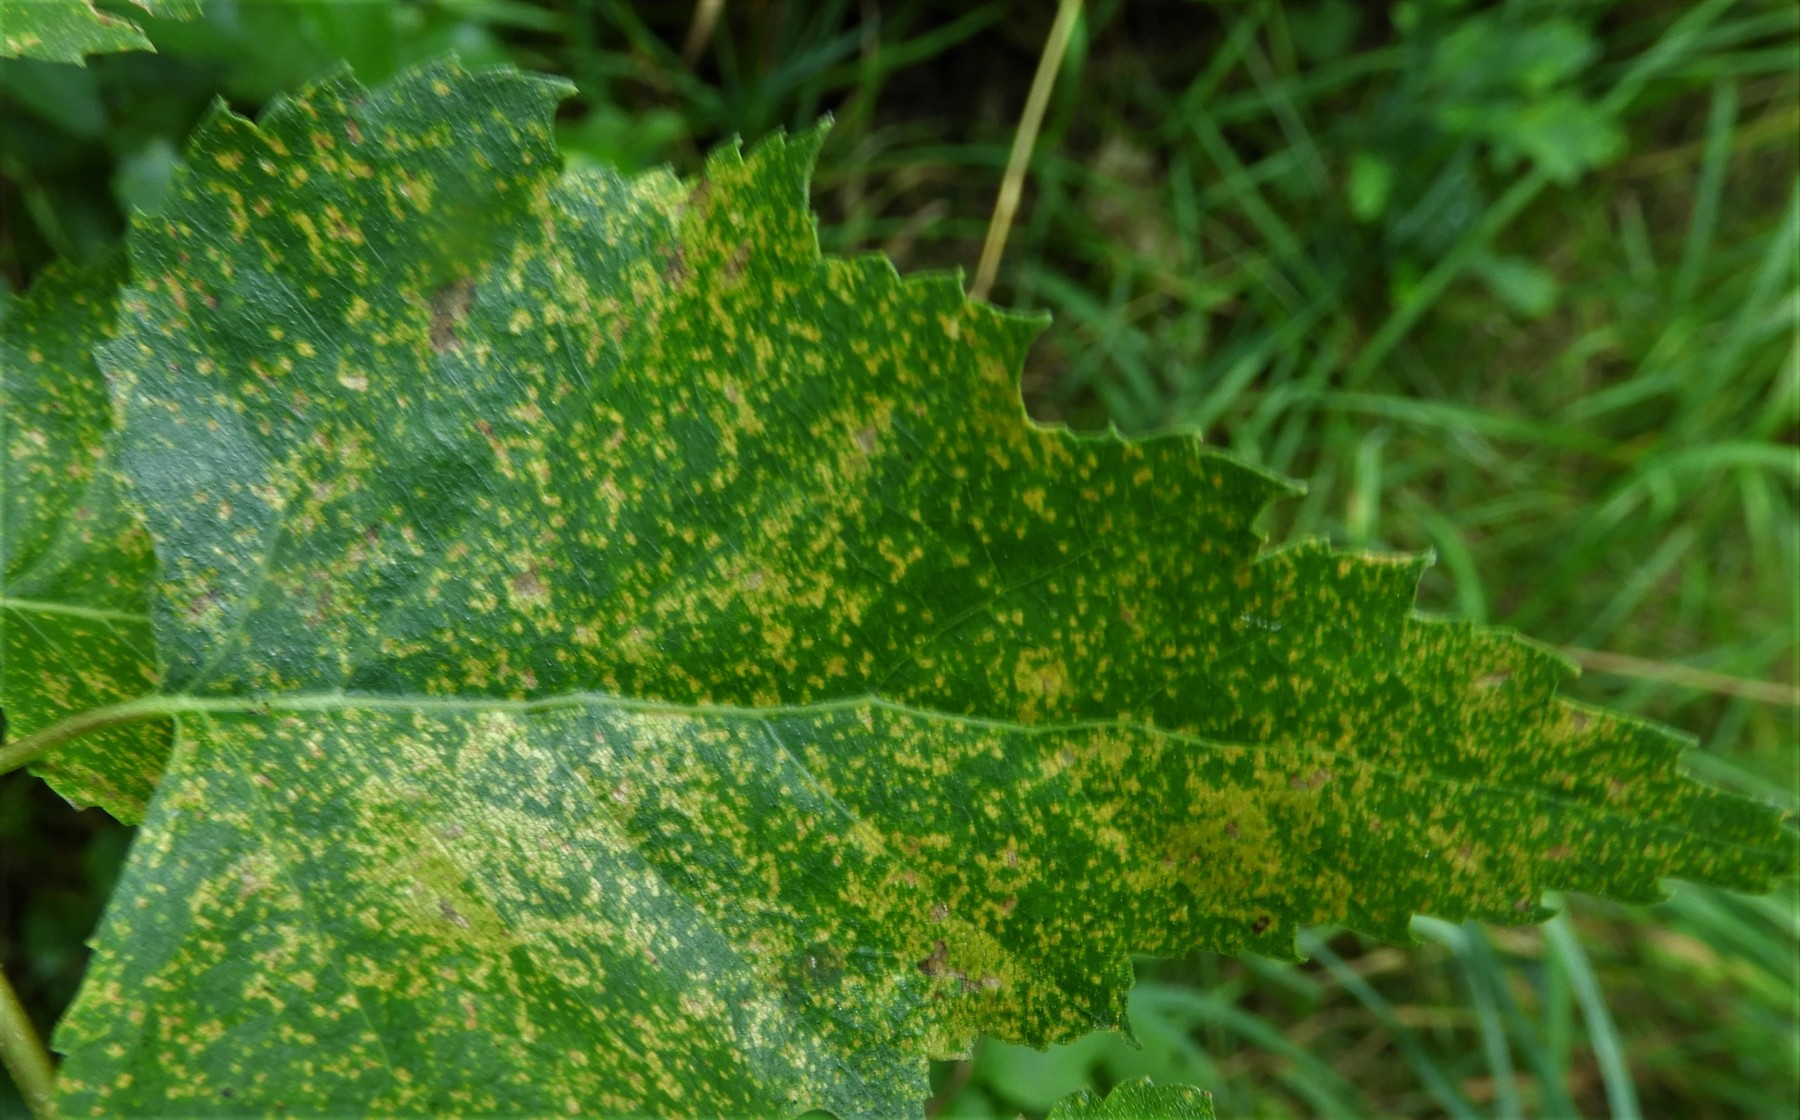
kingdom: Fungi
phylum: Basidiomycota
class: Pucciniomycetes
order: Pucciniales
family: Pucciniastraceae
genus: Melampsoridium
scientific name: Melampsoridium betulinum
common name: Birch rust
